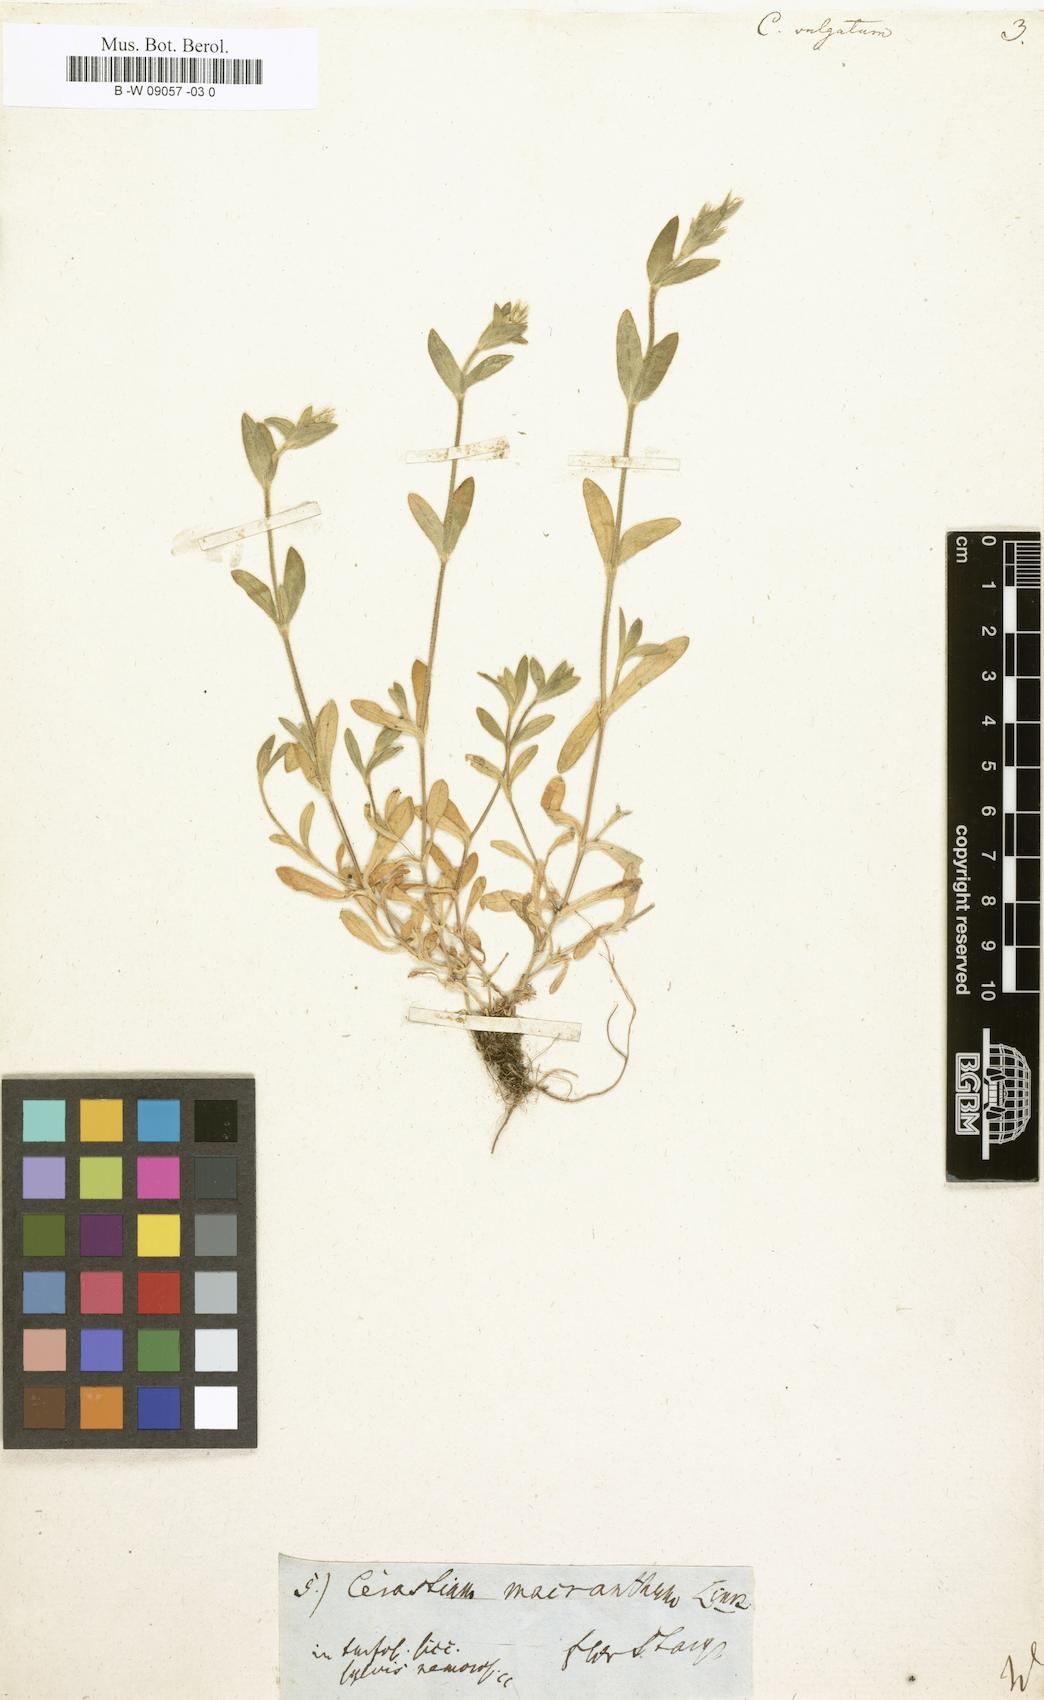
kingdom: Plantae
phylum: Tracheophyta
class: Magnoliopsida
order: Caryophyllales
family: Caryophyllaceae
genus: Cerastium
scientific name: Cerastium
